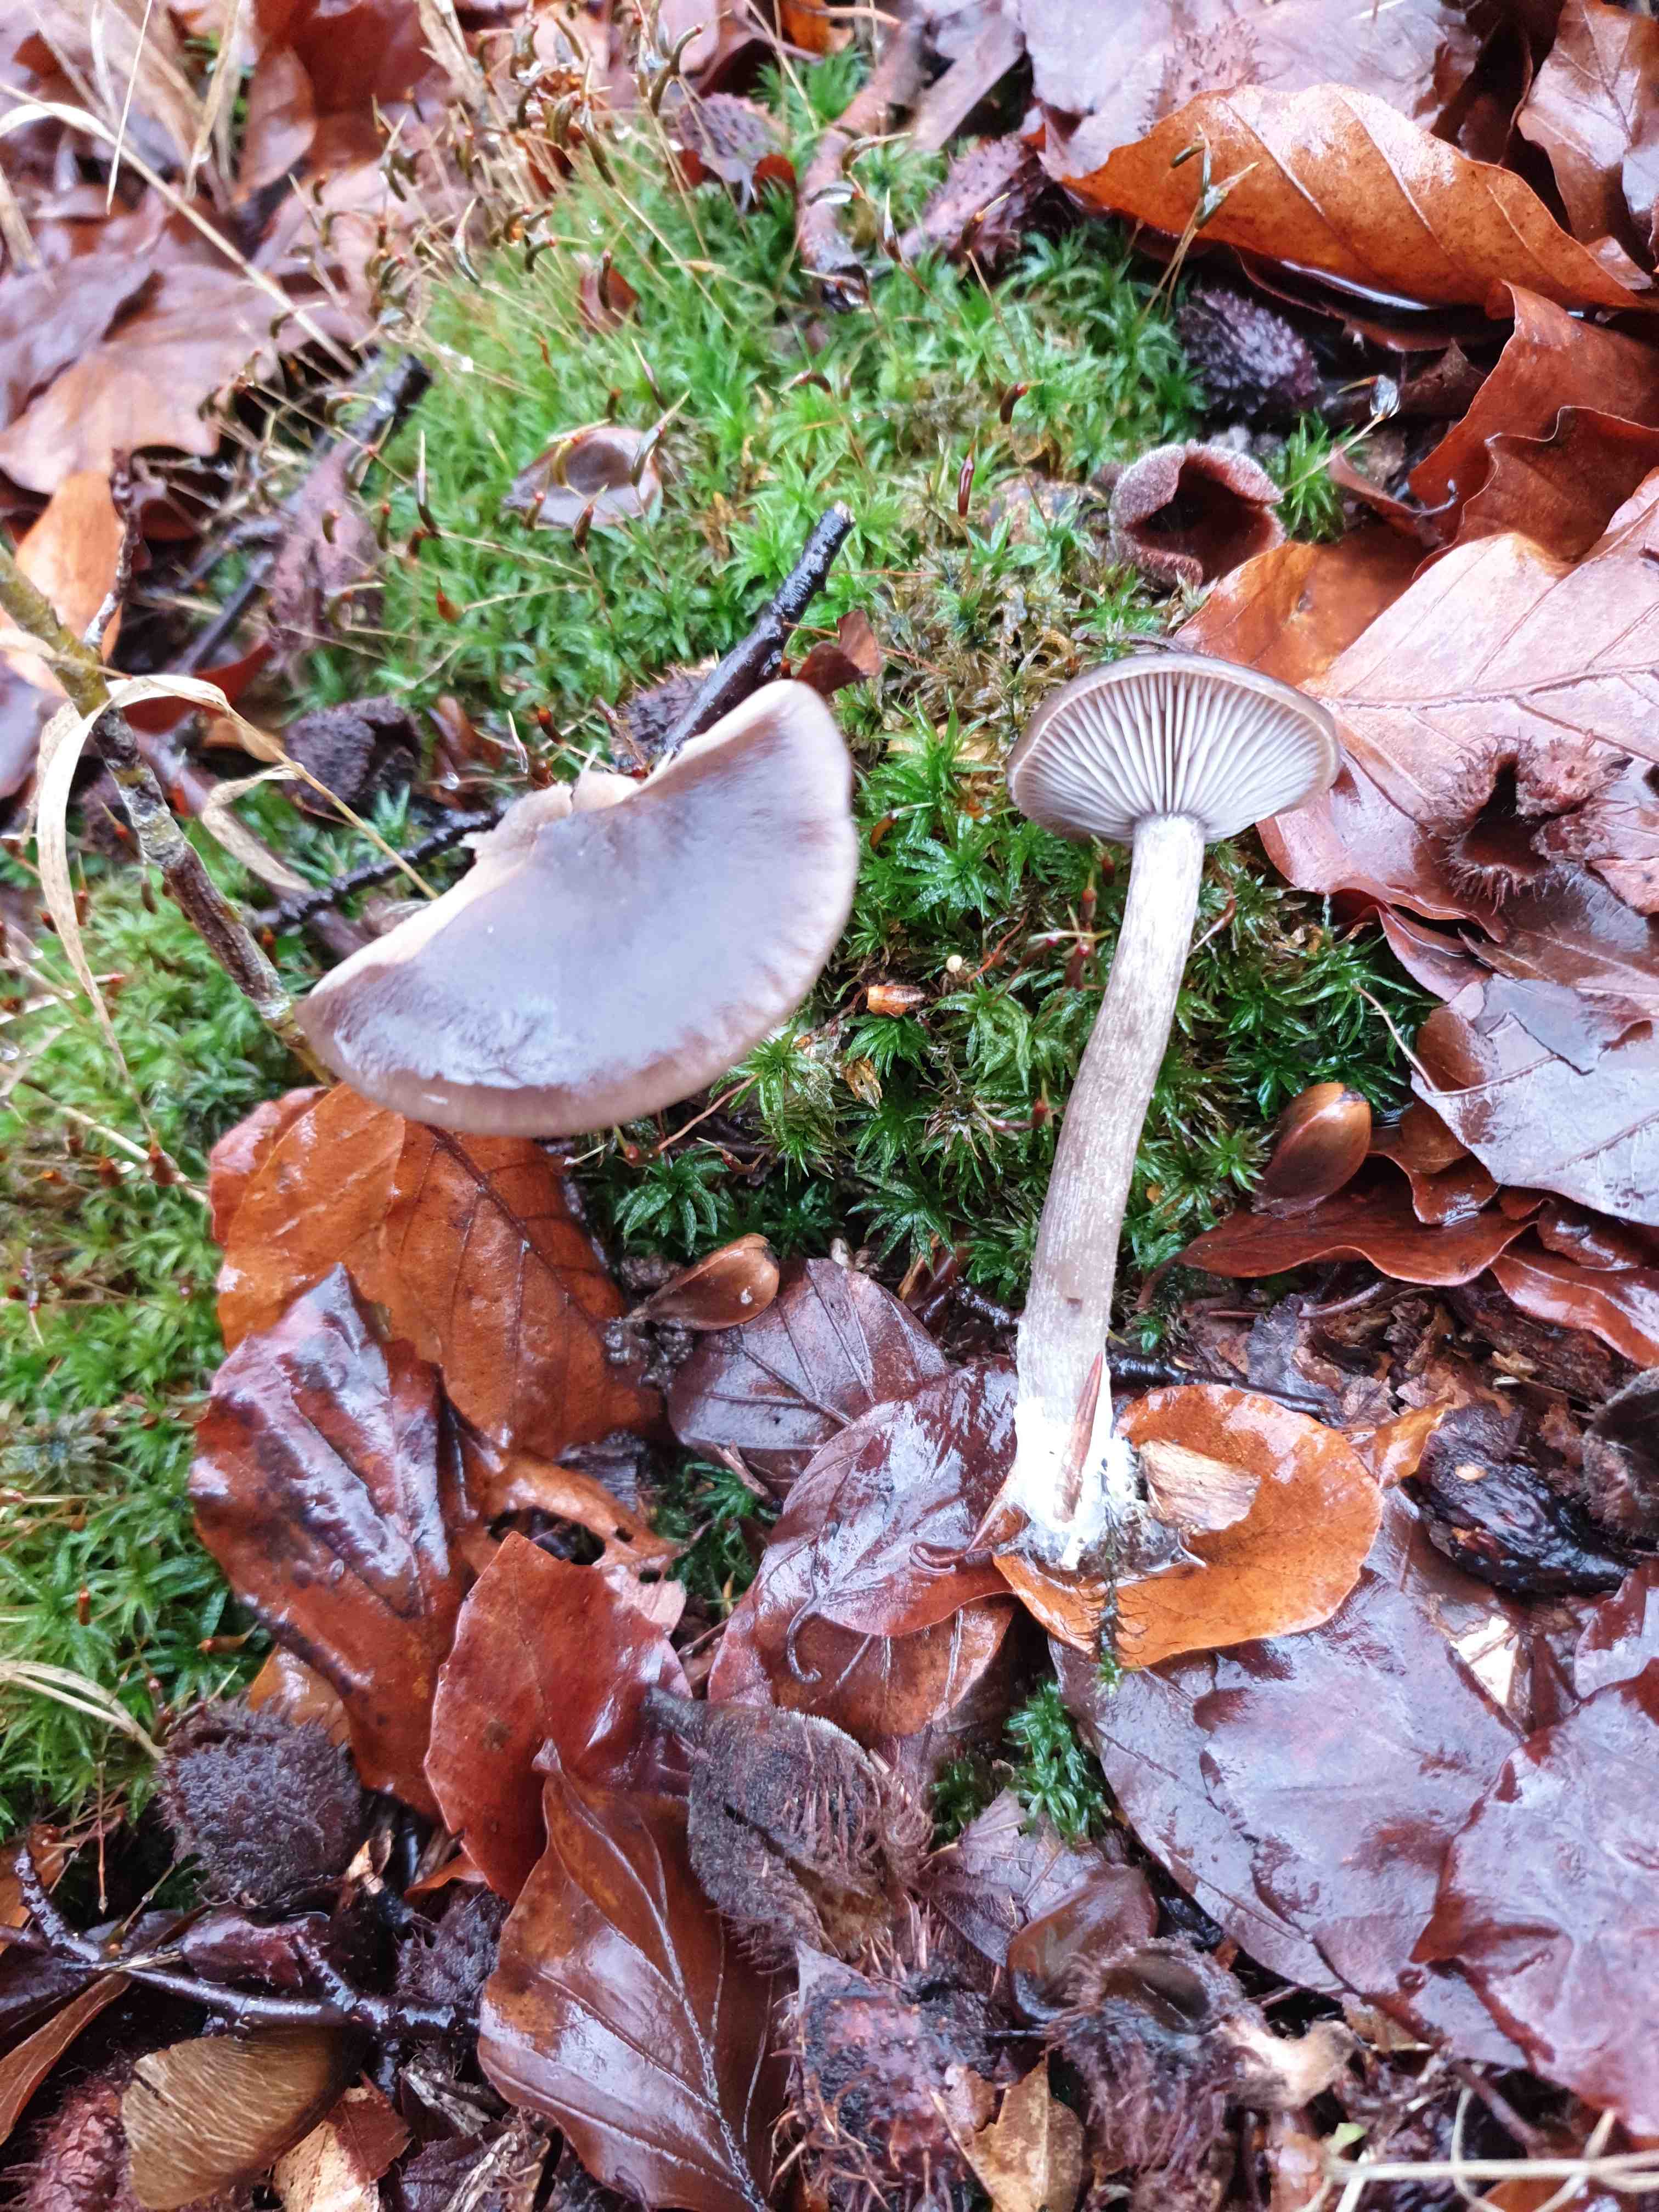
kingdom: Fungi
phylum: Basidiomycota
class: Agaricomycetes
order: Agaricales
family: Pseudoclitocybaceae
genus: Pseudoclitocybe
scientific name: Pseudoclitocybe cyathiformis
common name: almindelig bægertragthat
